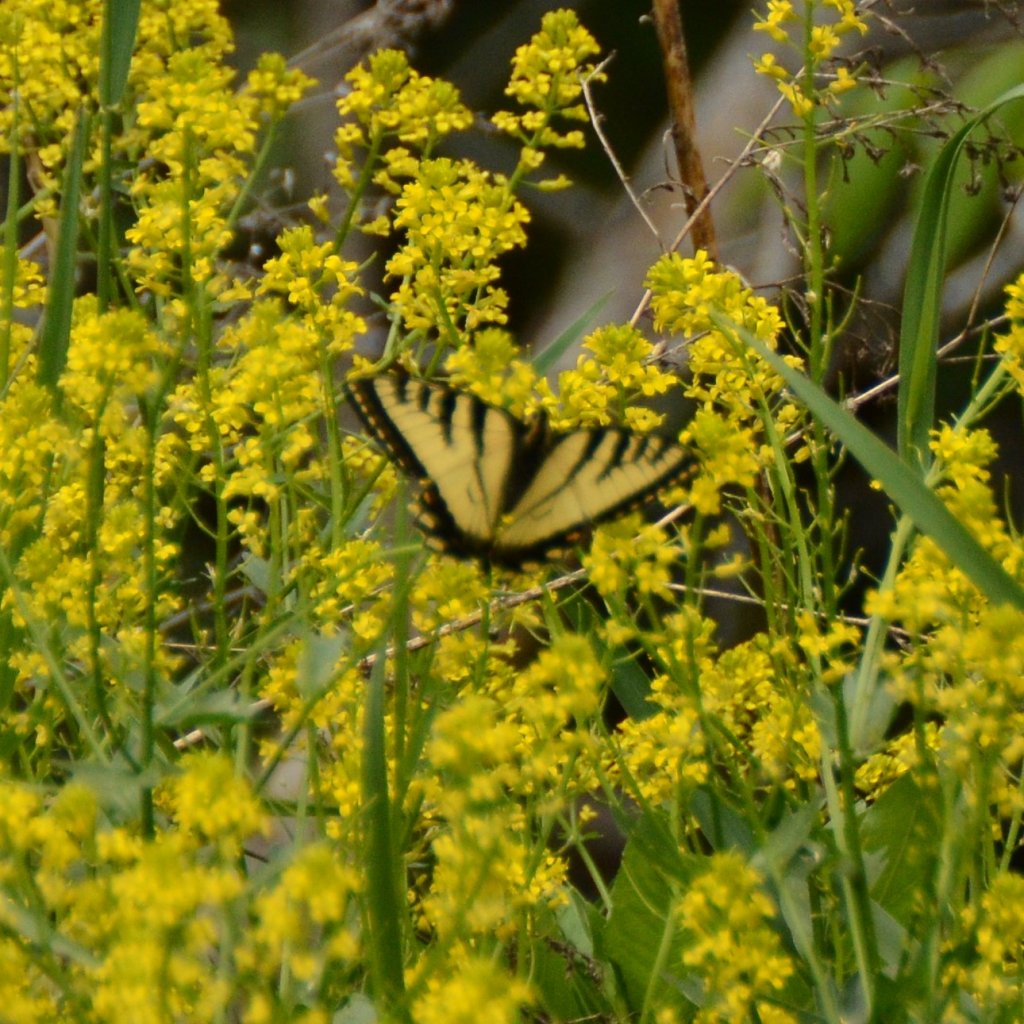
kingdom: Animalia
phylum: Arthropoda
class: Insecta
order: Lepidoptera
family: Papilionidae
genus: Pterourus
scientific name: Pterourus canadensis
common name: Canadian Tiger Swallowtail
